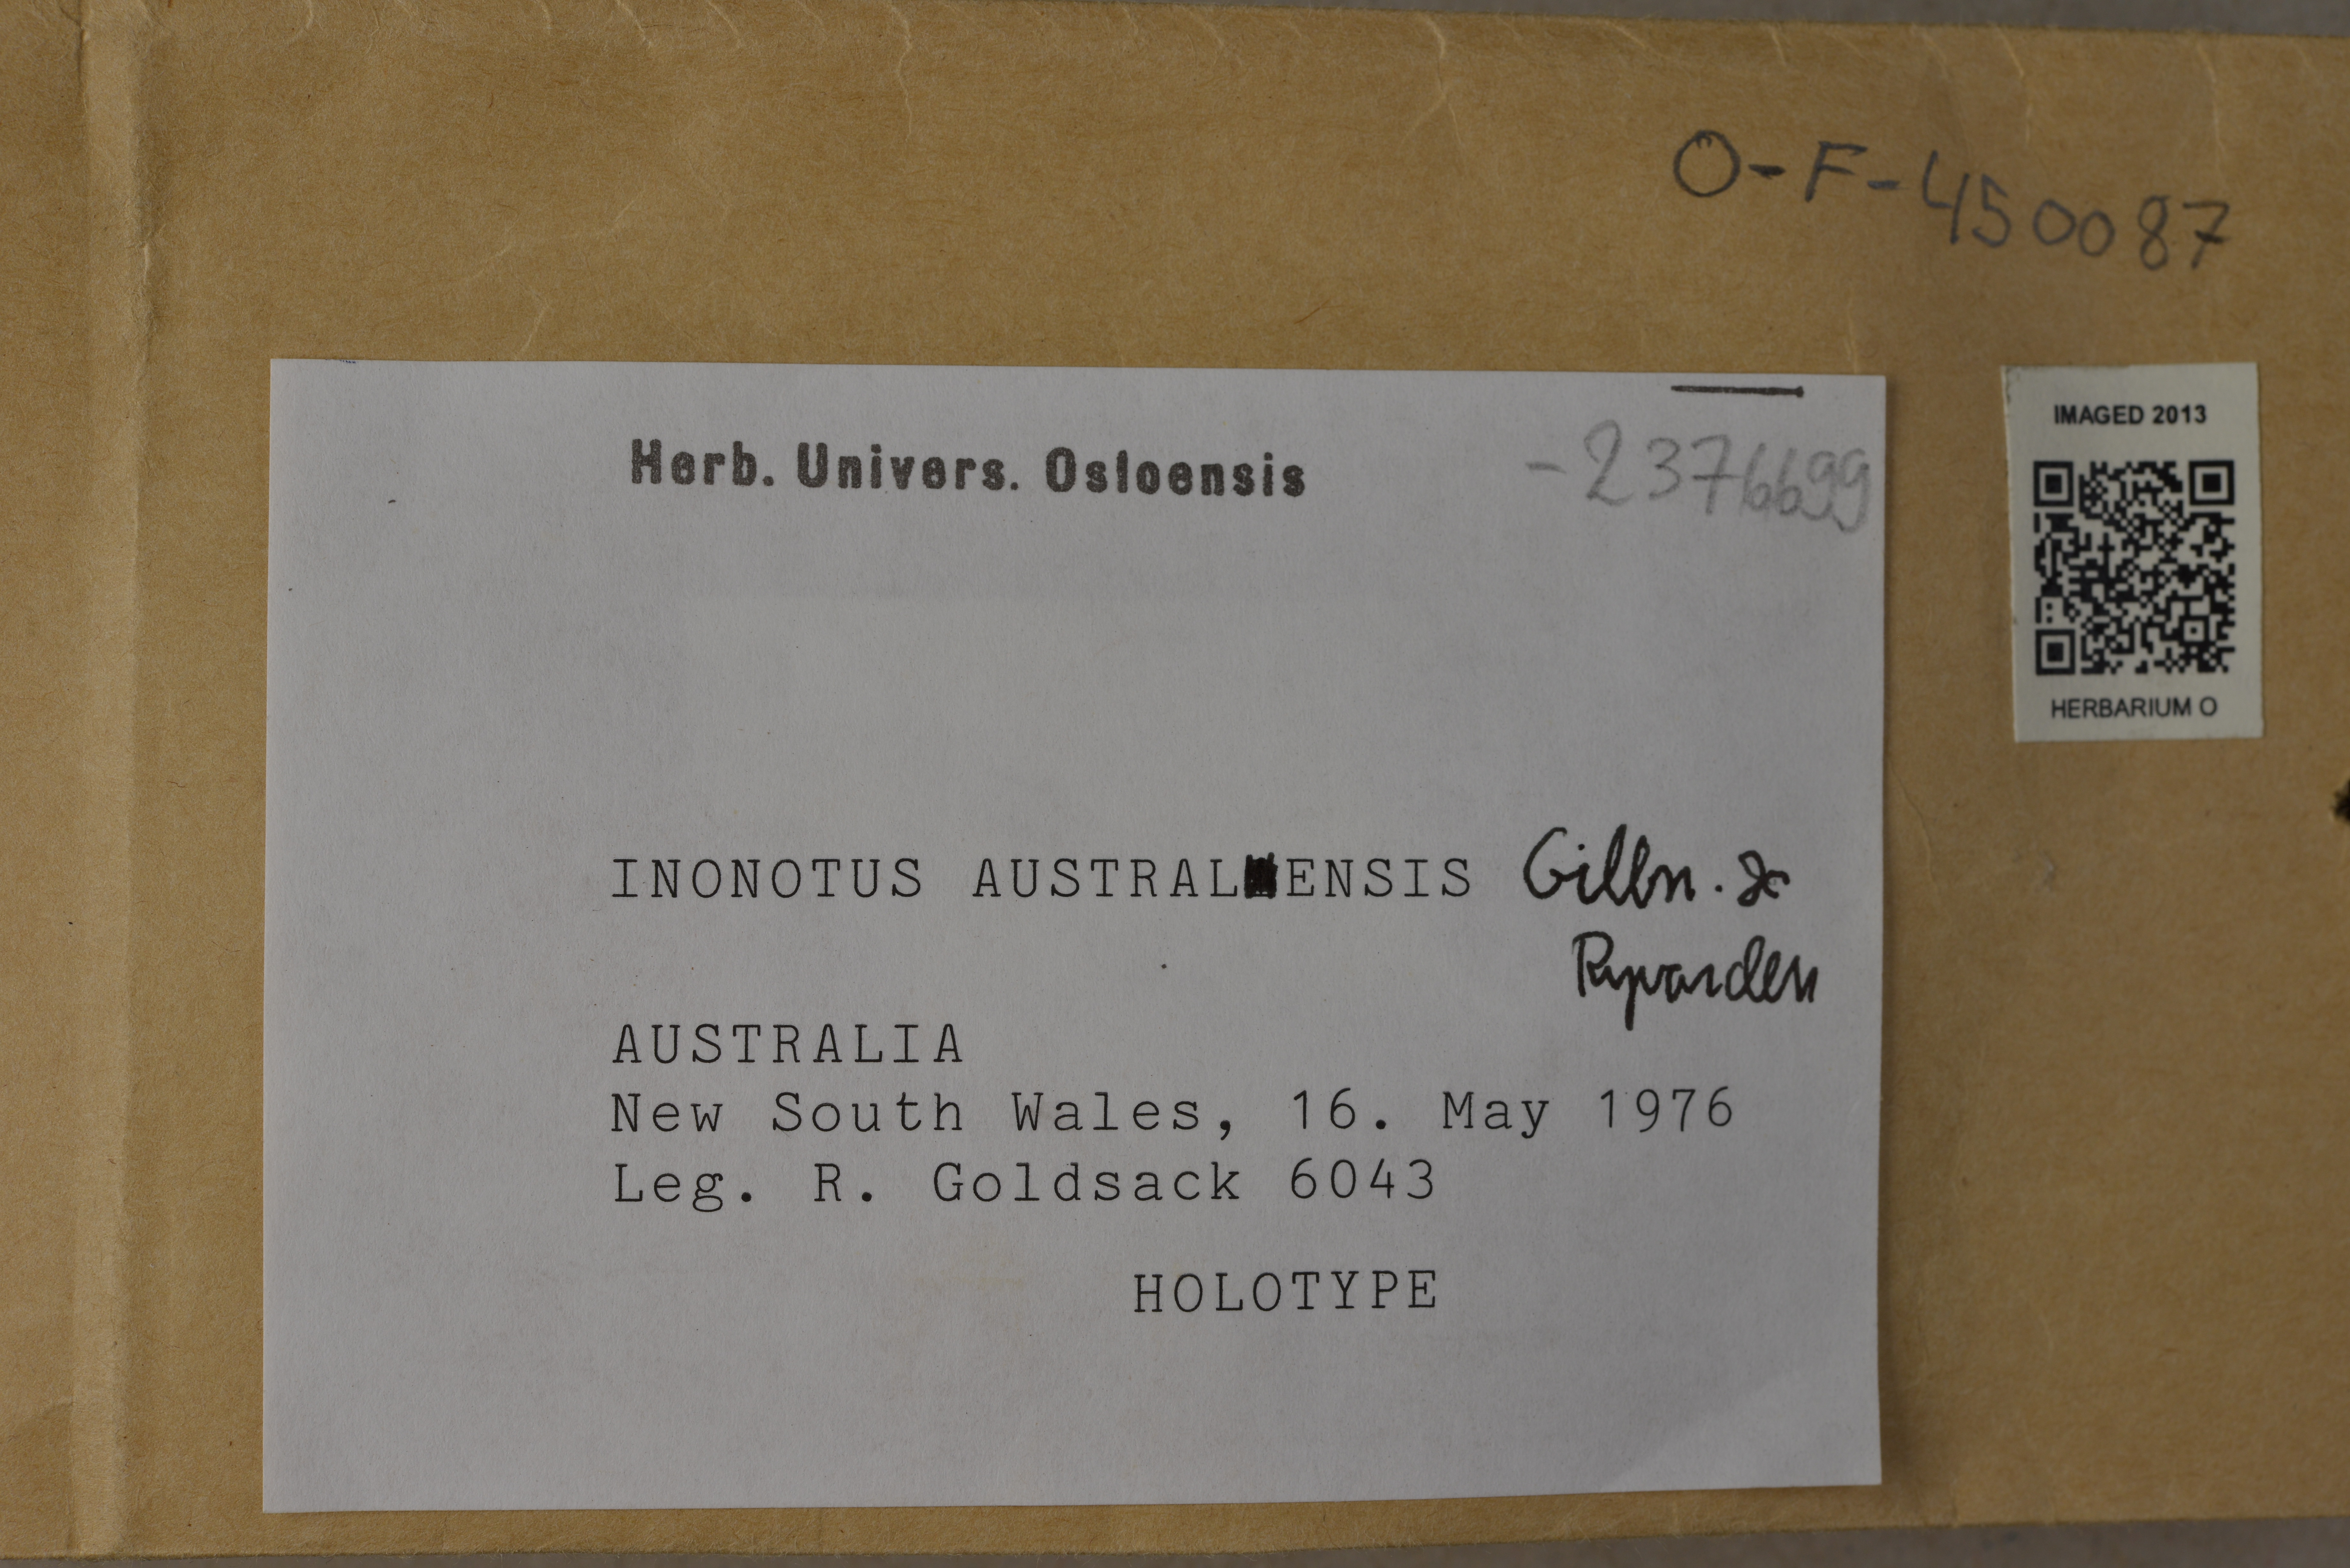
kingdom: Fungi
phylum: Basidiomycota
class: Agaricomycetes
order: Hymenochaetales
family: Hymenochaetaceae
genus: Pseudoinonotus
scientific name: Pseudoinonotus australiensis
